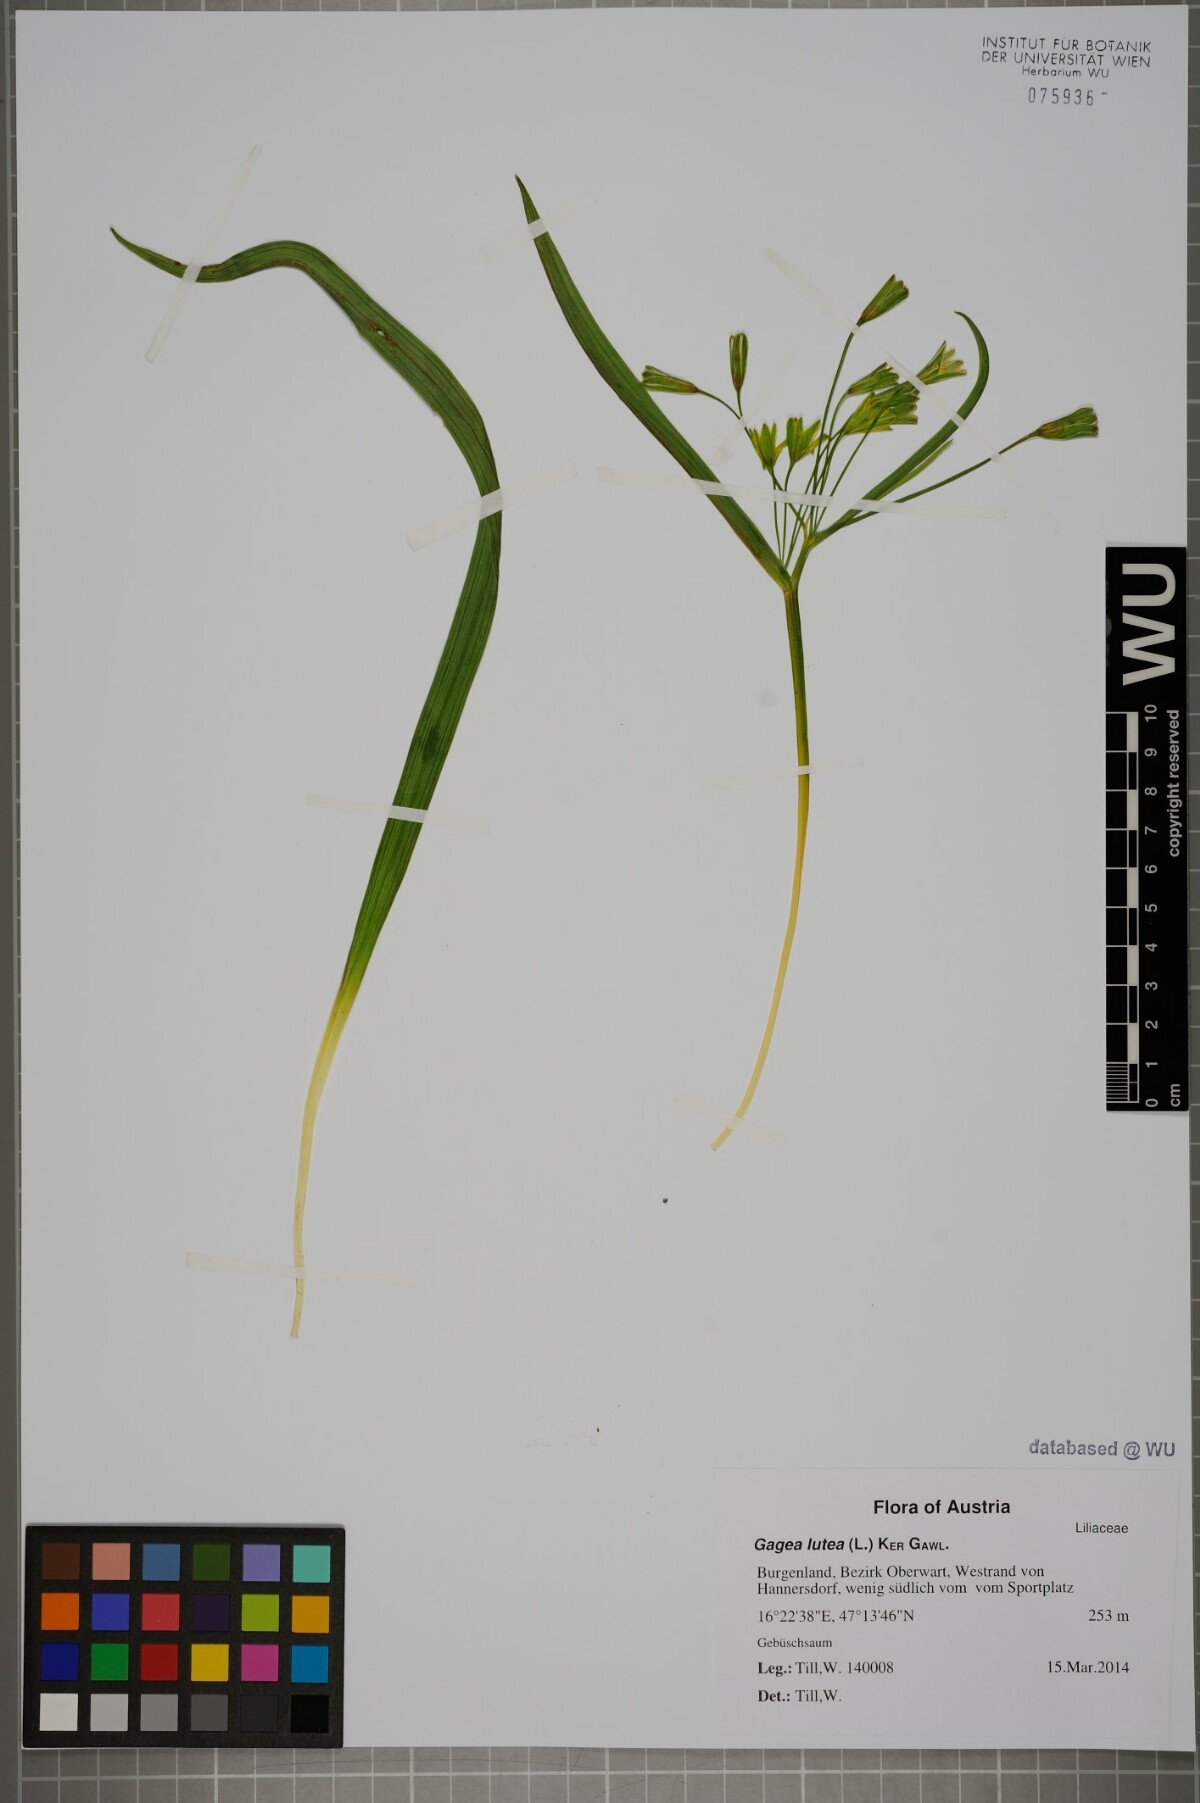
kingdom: Plantae
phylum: Tracheophyta
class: Liliopsida
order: Liliales
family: Liliaceae
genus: Gagea
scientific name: Gagea lutea
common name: Yellow star-of-bethlehem
